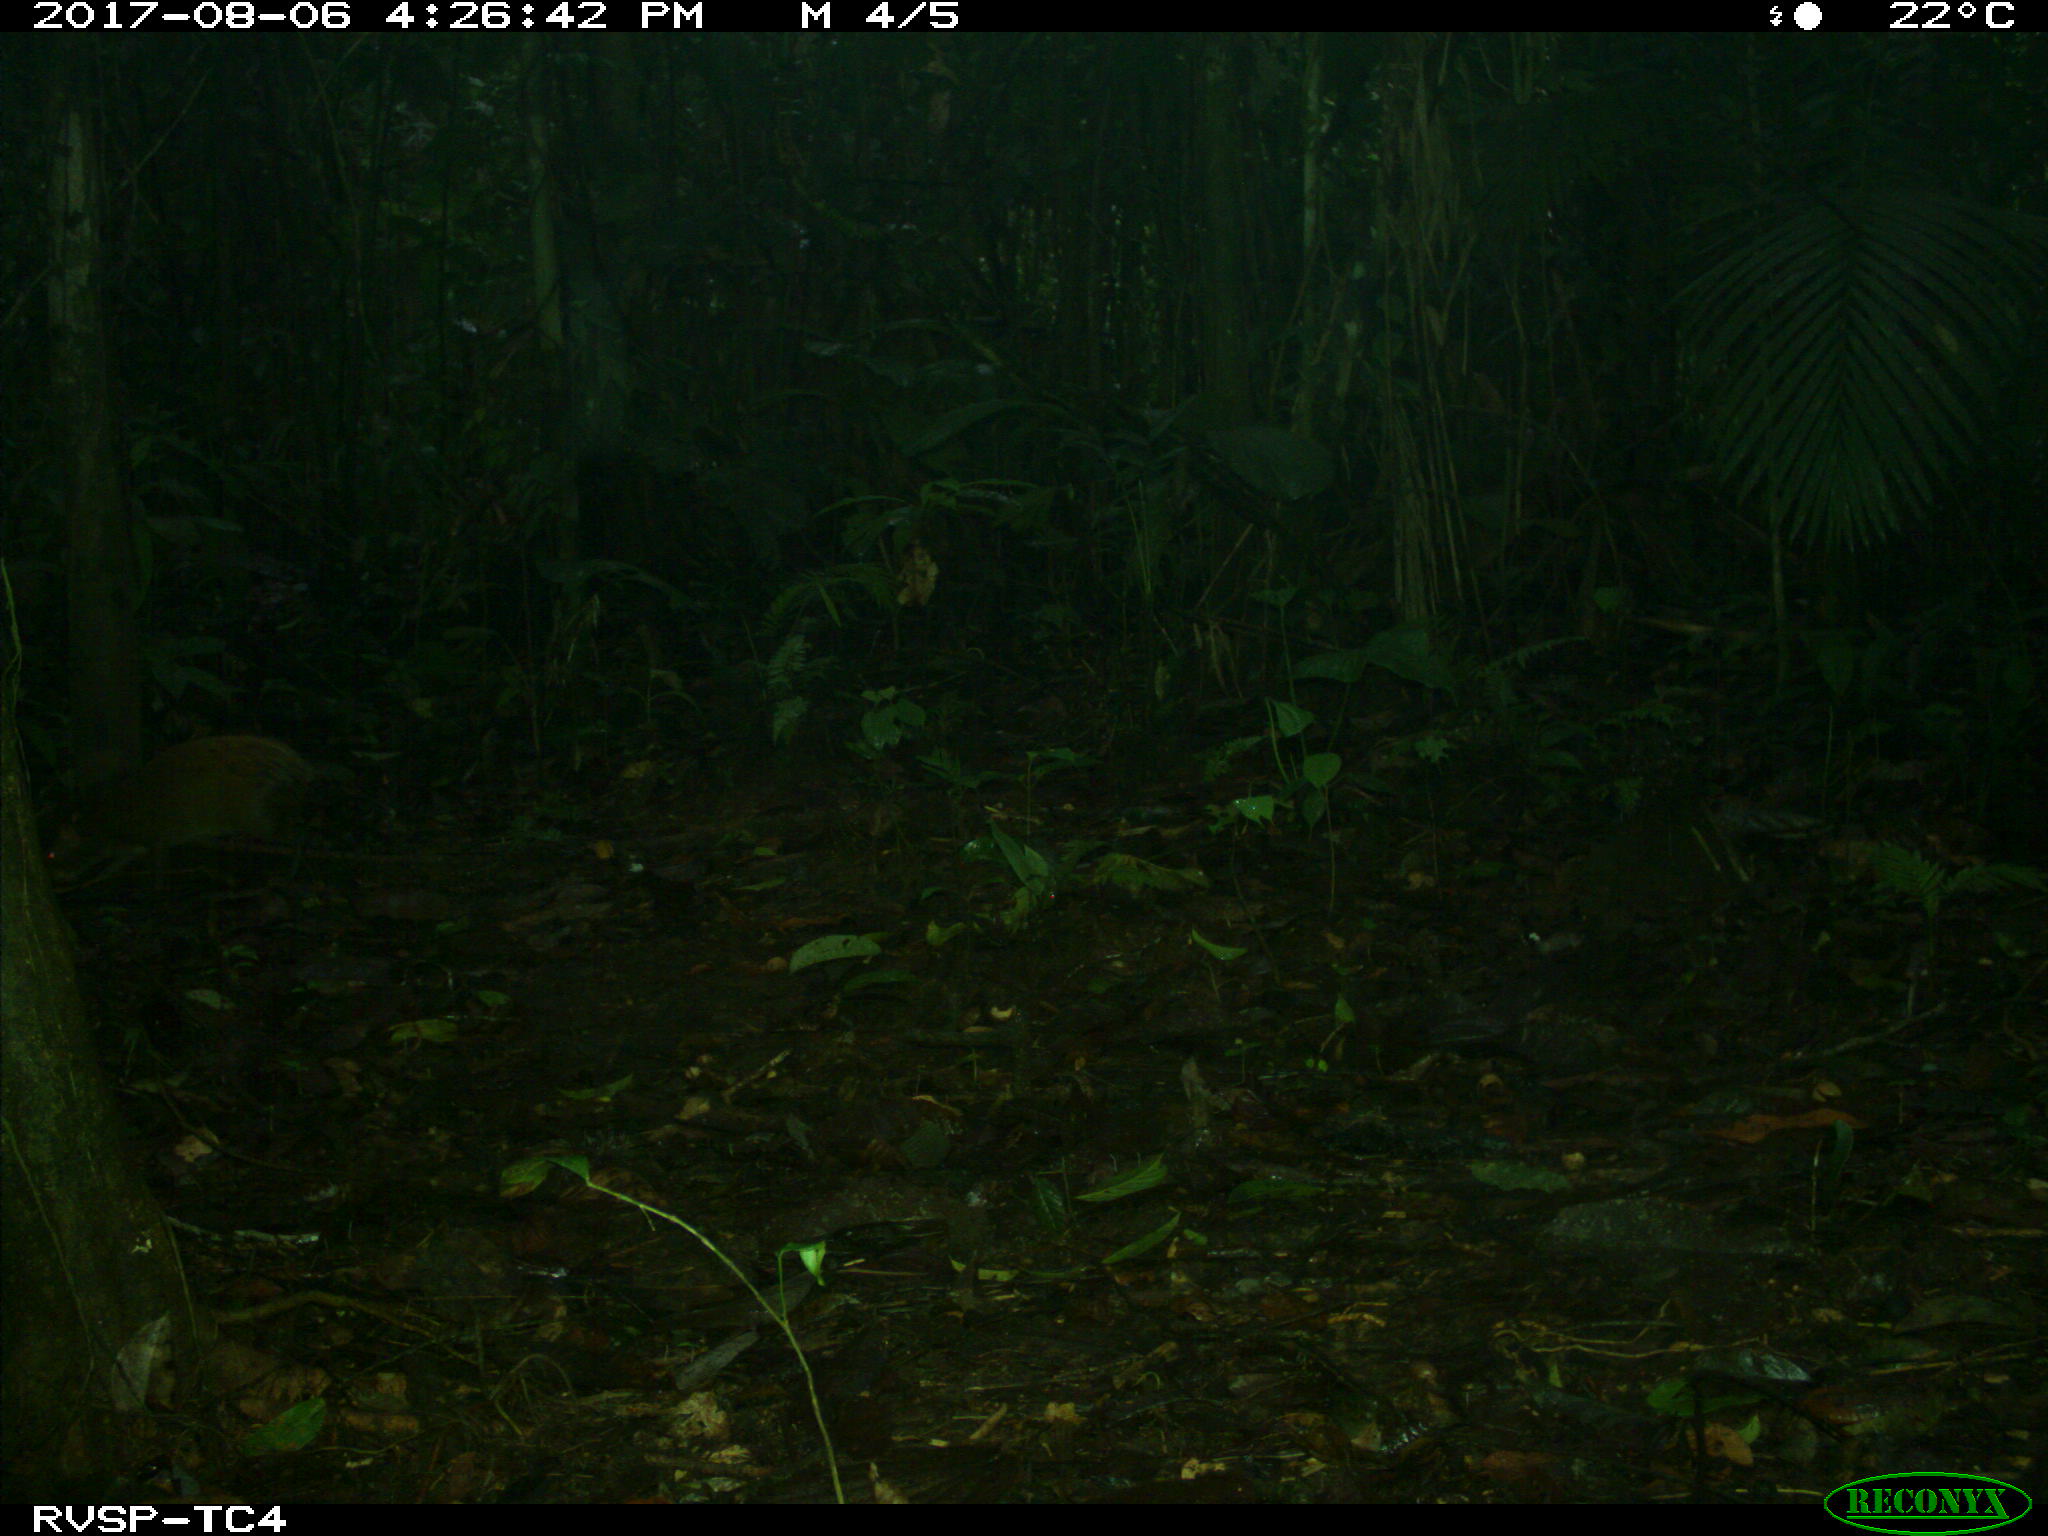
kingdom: Animalia
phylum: Chordata
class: Mammalia
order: Rodentia
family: Dasyproctidae
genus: Dasyprocta
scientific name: Dasyprocta punctata
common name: Central american agouti
